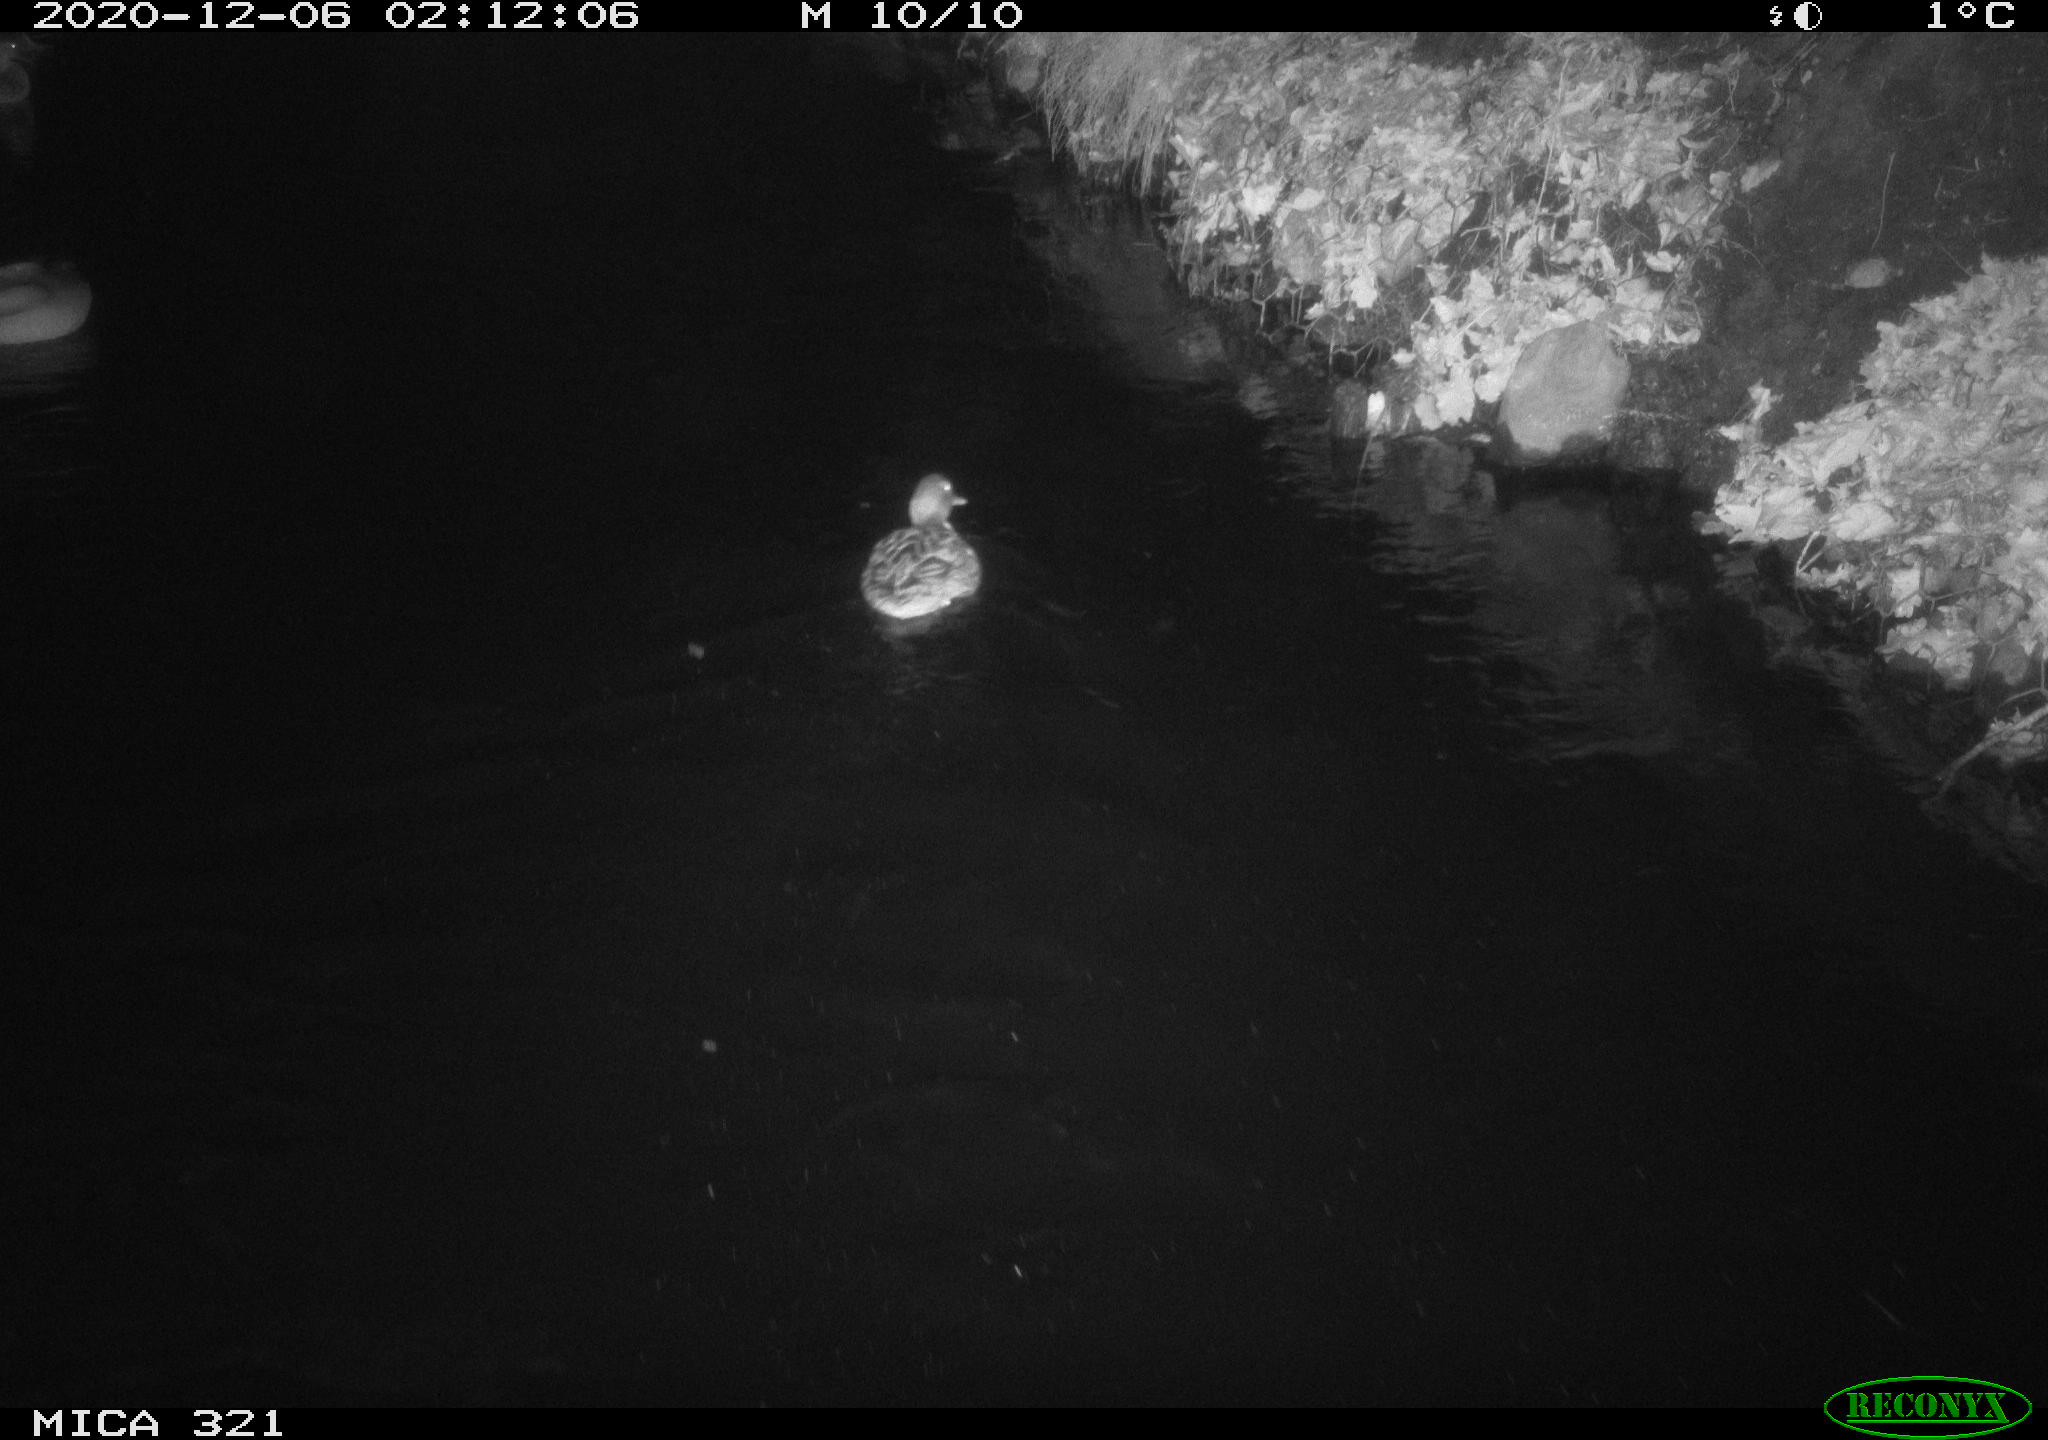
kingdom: Animalia
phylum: Chordata
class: Aves
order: Anseriformes
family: Anatidae
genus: Anas
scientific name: Anas platyrhynchos
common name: Mallard
